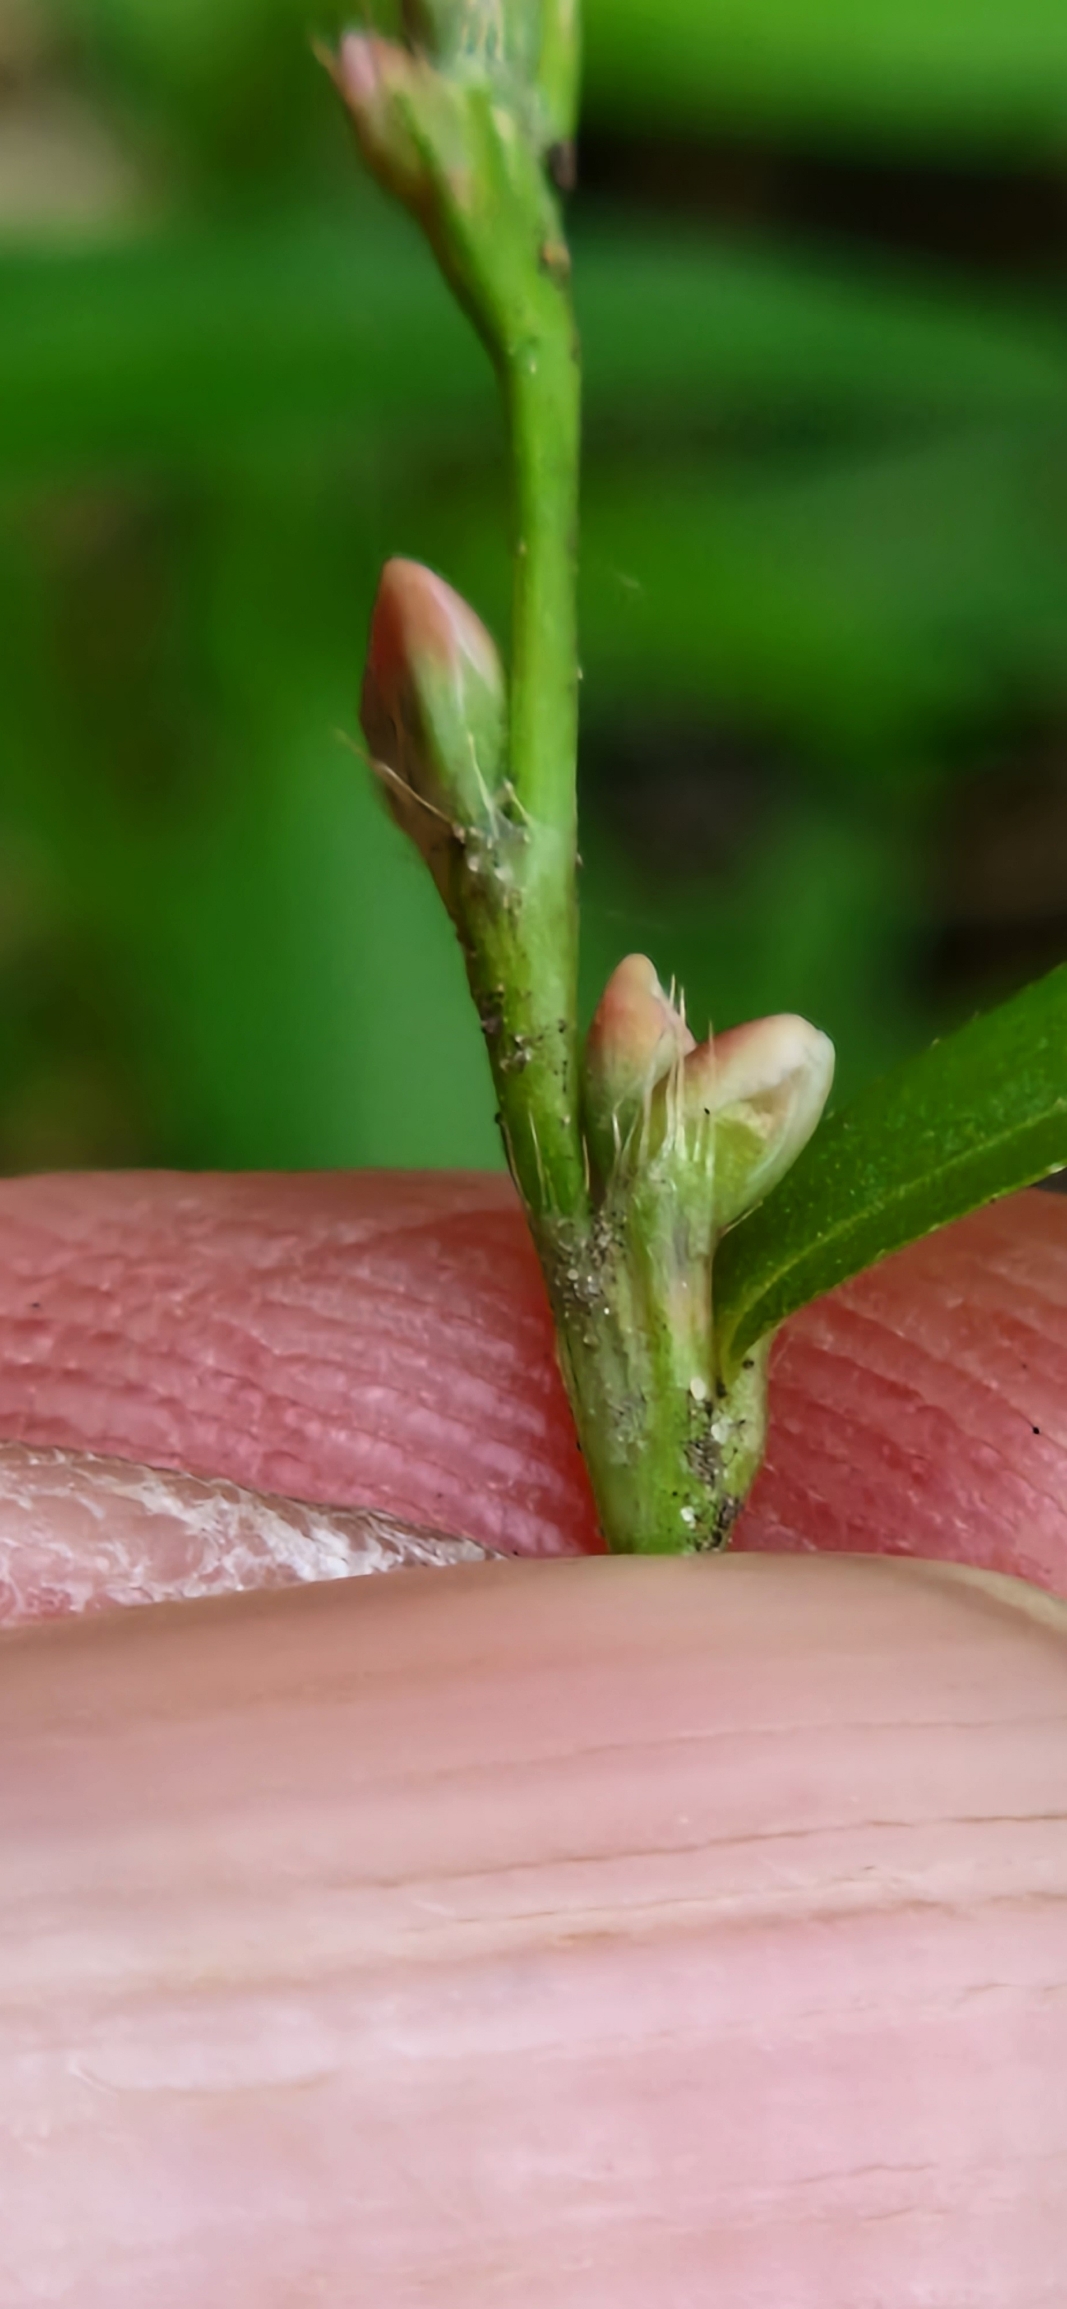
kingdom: Plantae
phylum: Tracheophyta
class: Magnoliopsida
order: Caryophyllales
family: Polygonaceae
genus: Persicaria
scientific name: Persicaria minor
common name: Liden pileurt
